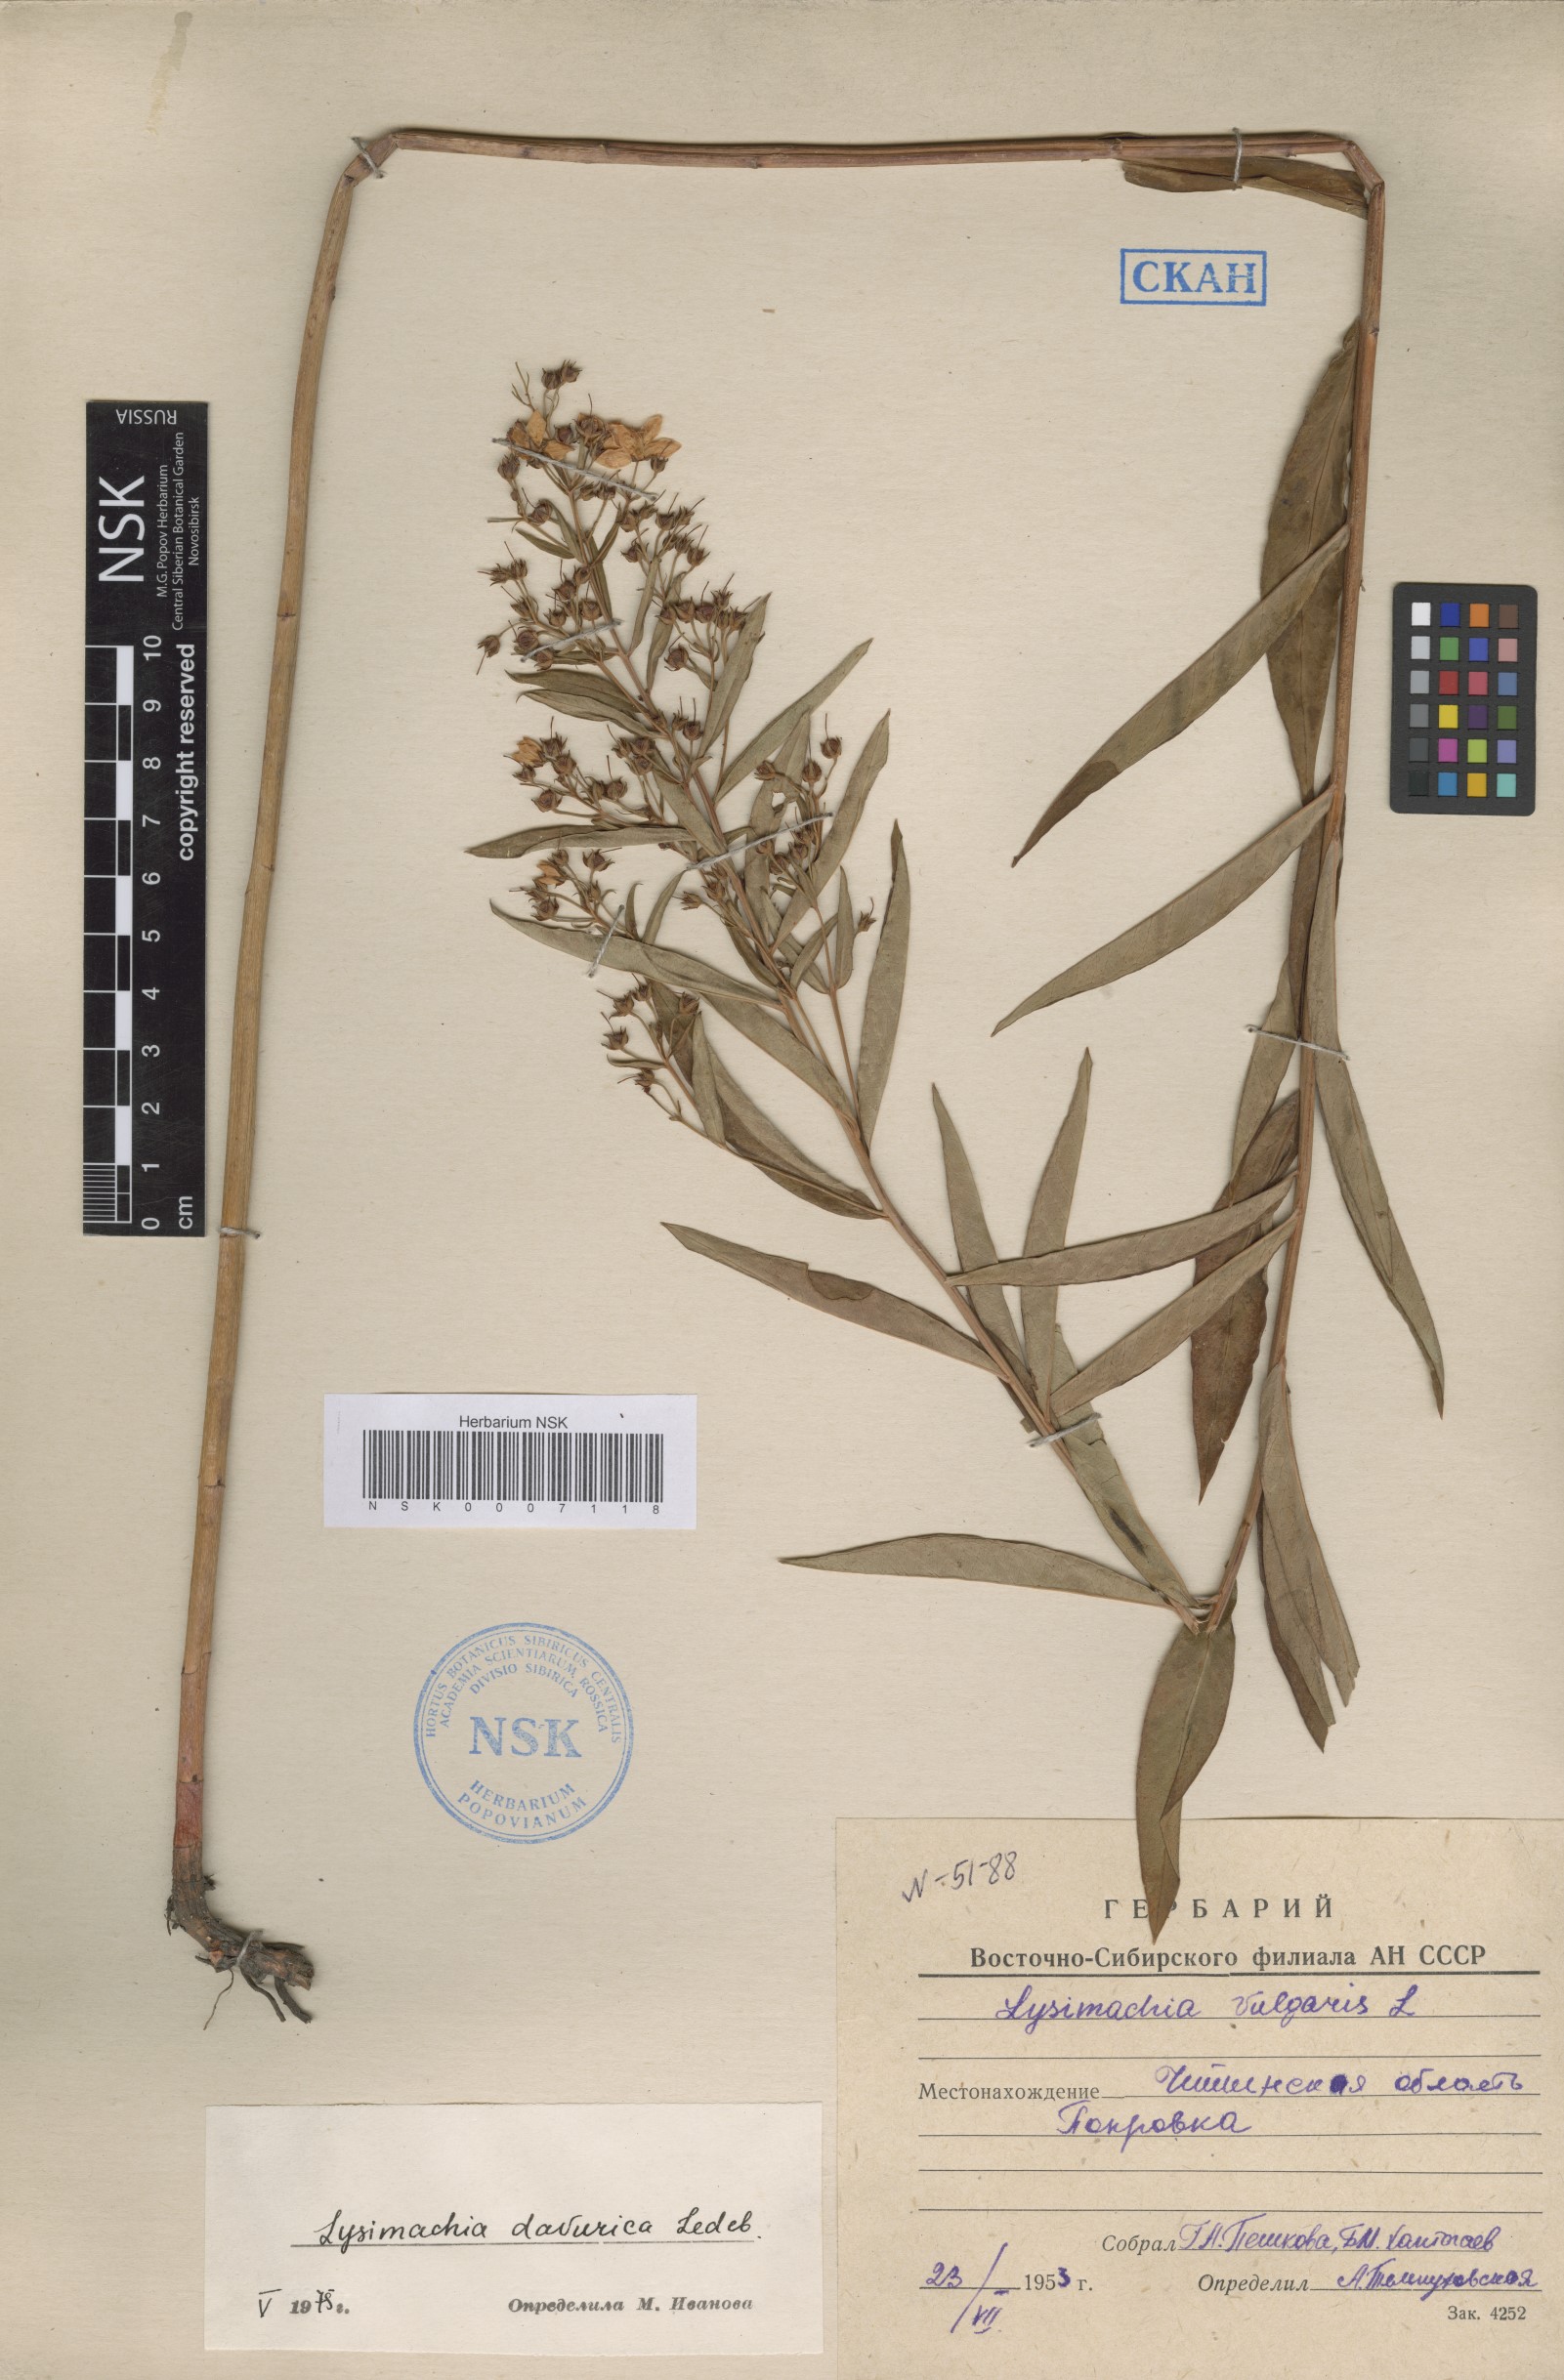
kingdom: Plantae
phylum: Tracheophyta
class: Magnoliopsida
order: Ericales
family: Primulaceae
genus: Lysimachia
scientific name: Lysimachia davurica
